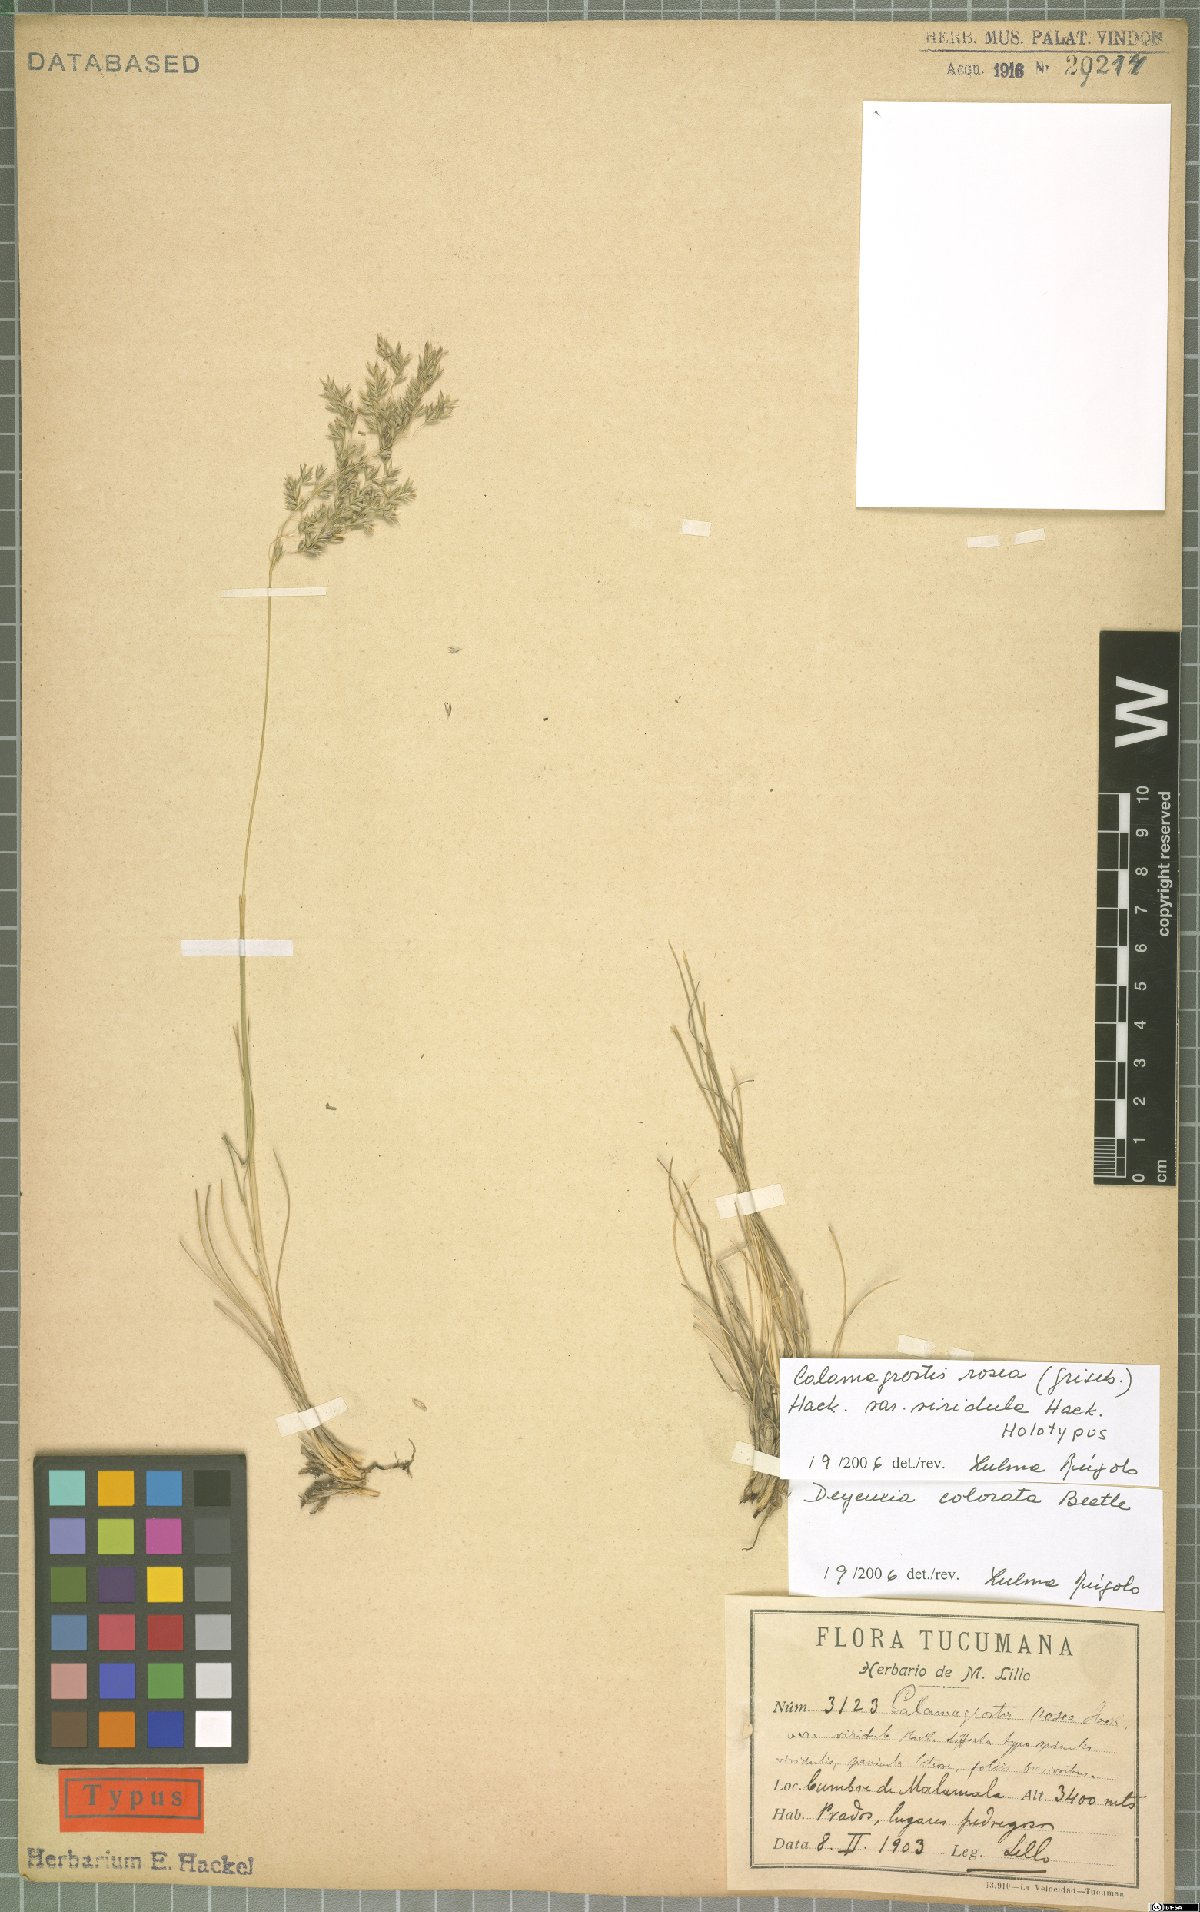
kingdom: Plantae
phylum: Tracheophyta
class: Liliopsida
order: Poales
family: Poaceae
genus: Cinnagrostis
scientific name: Cinnagrostis rosea
